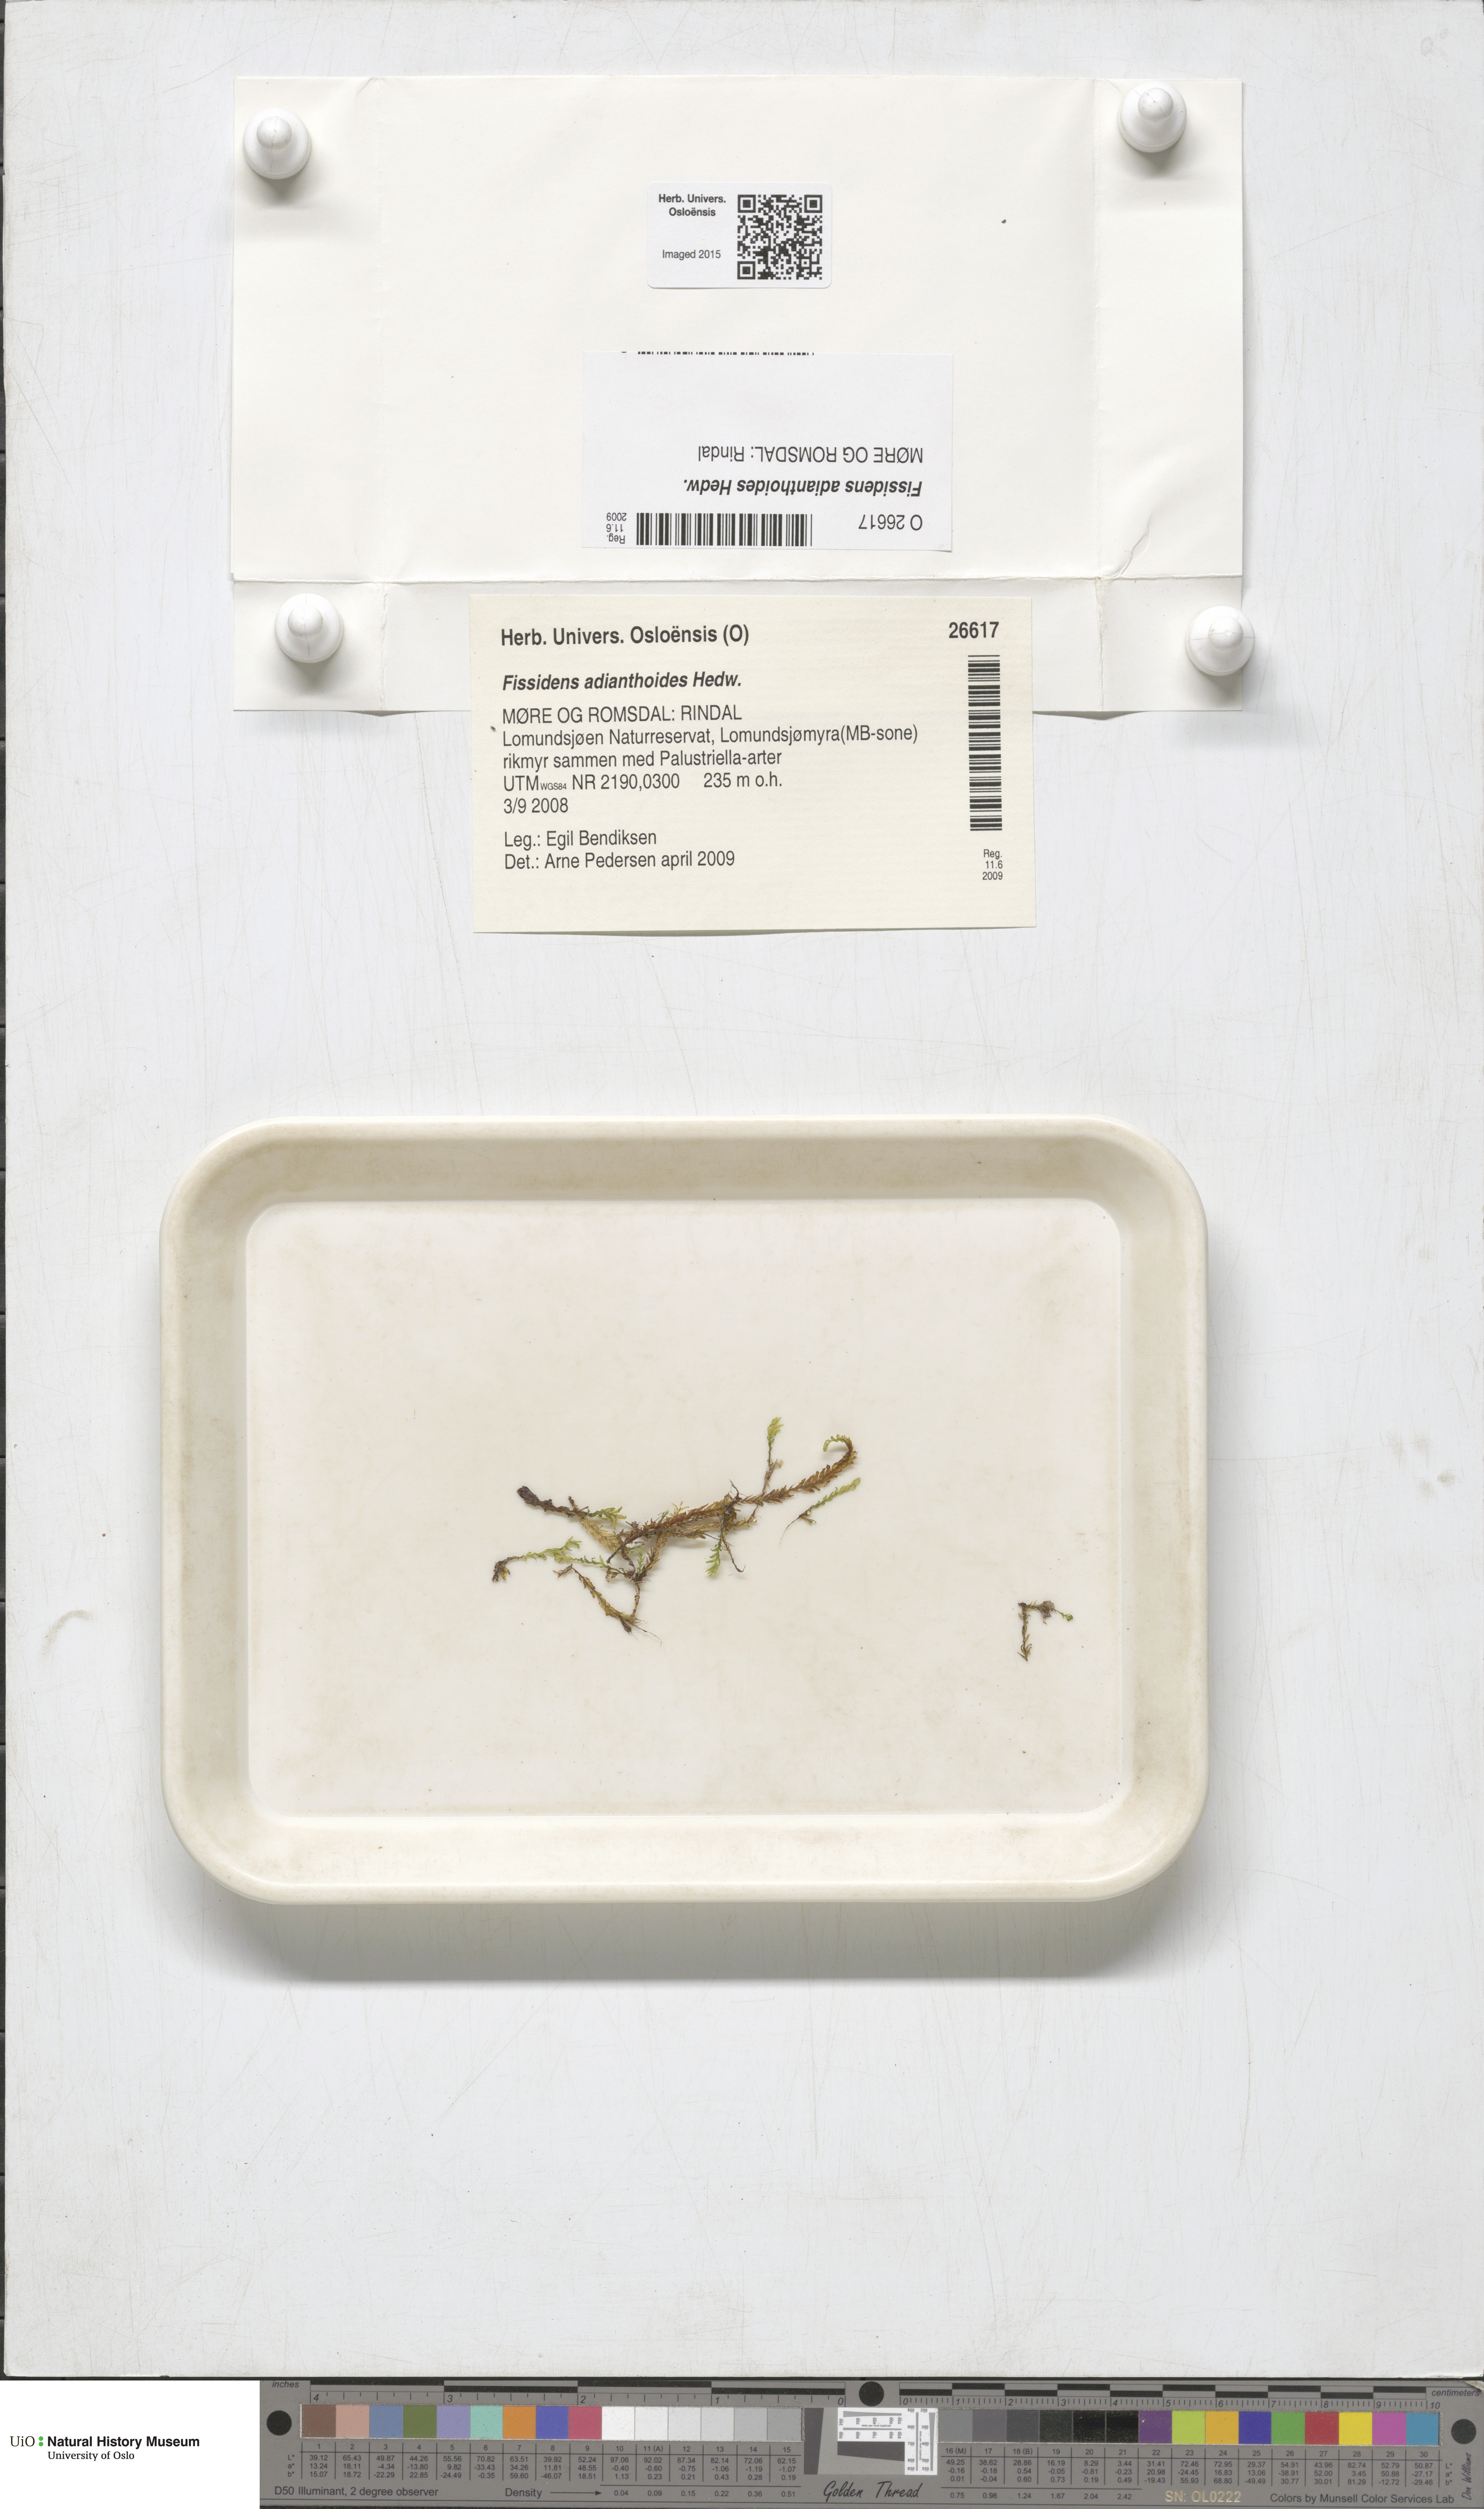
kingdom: Plantae
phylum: Bryophyta
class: Bryopsida
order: Dicranales
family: Fissidentaceae
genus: Fissidens
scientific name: Fissidens adianthoides
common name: Maidenhair pocket moss
